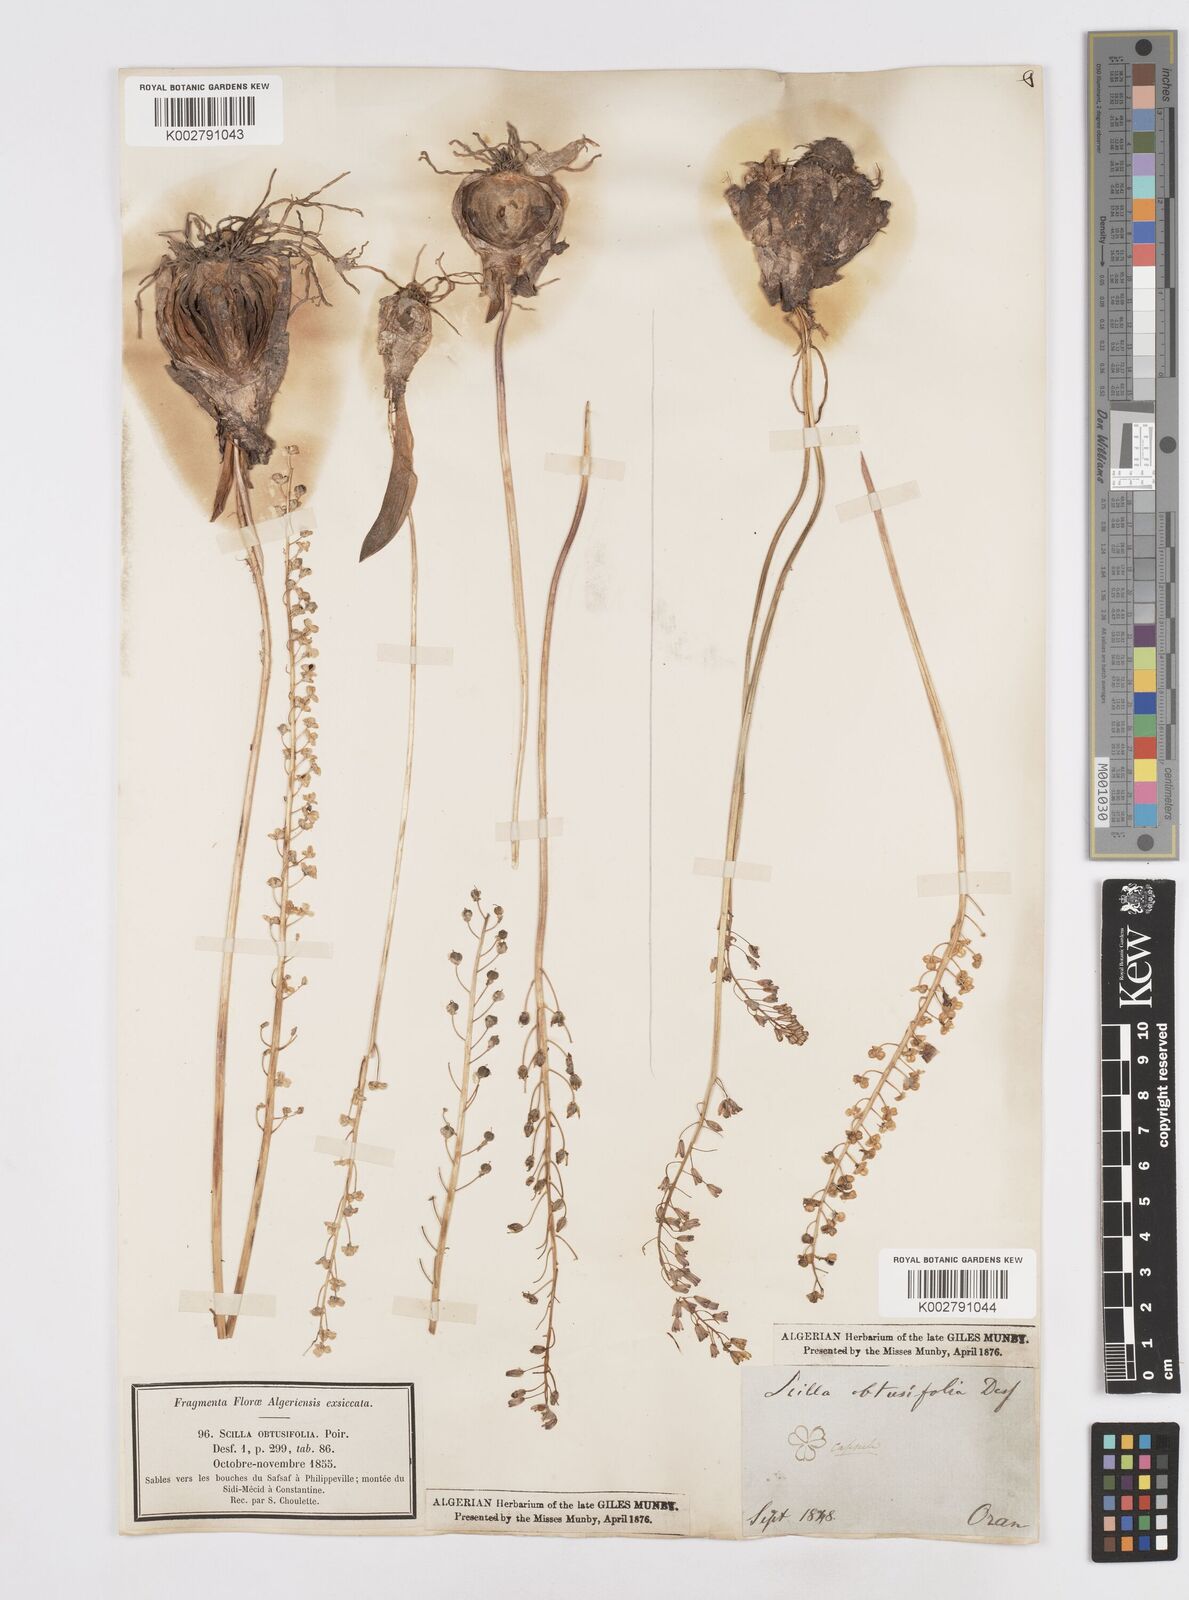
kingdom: Plantae
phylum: Tracheophyta
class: Liliopsida
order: Asparagales
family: Asparagaceae
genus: Prospero
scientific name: Prospero obtusifolium
